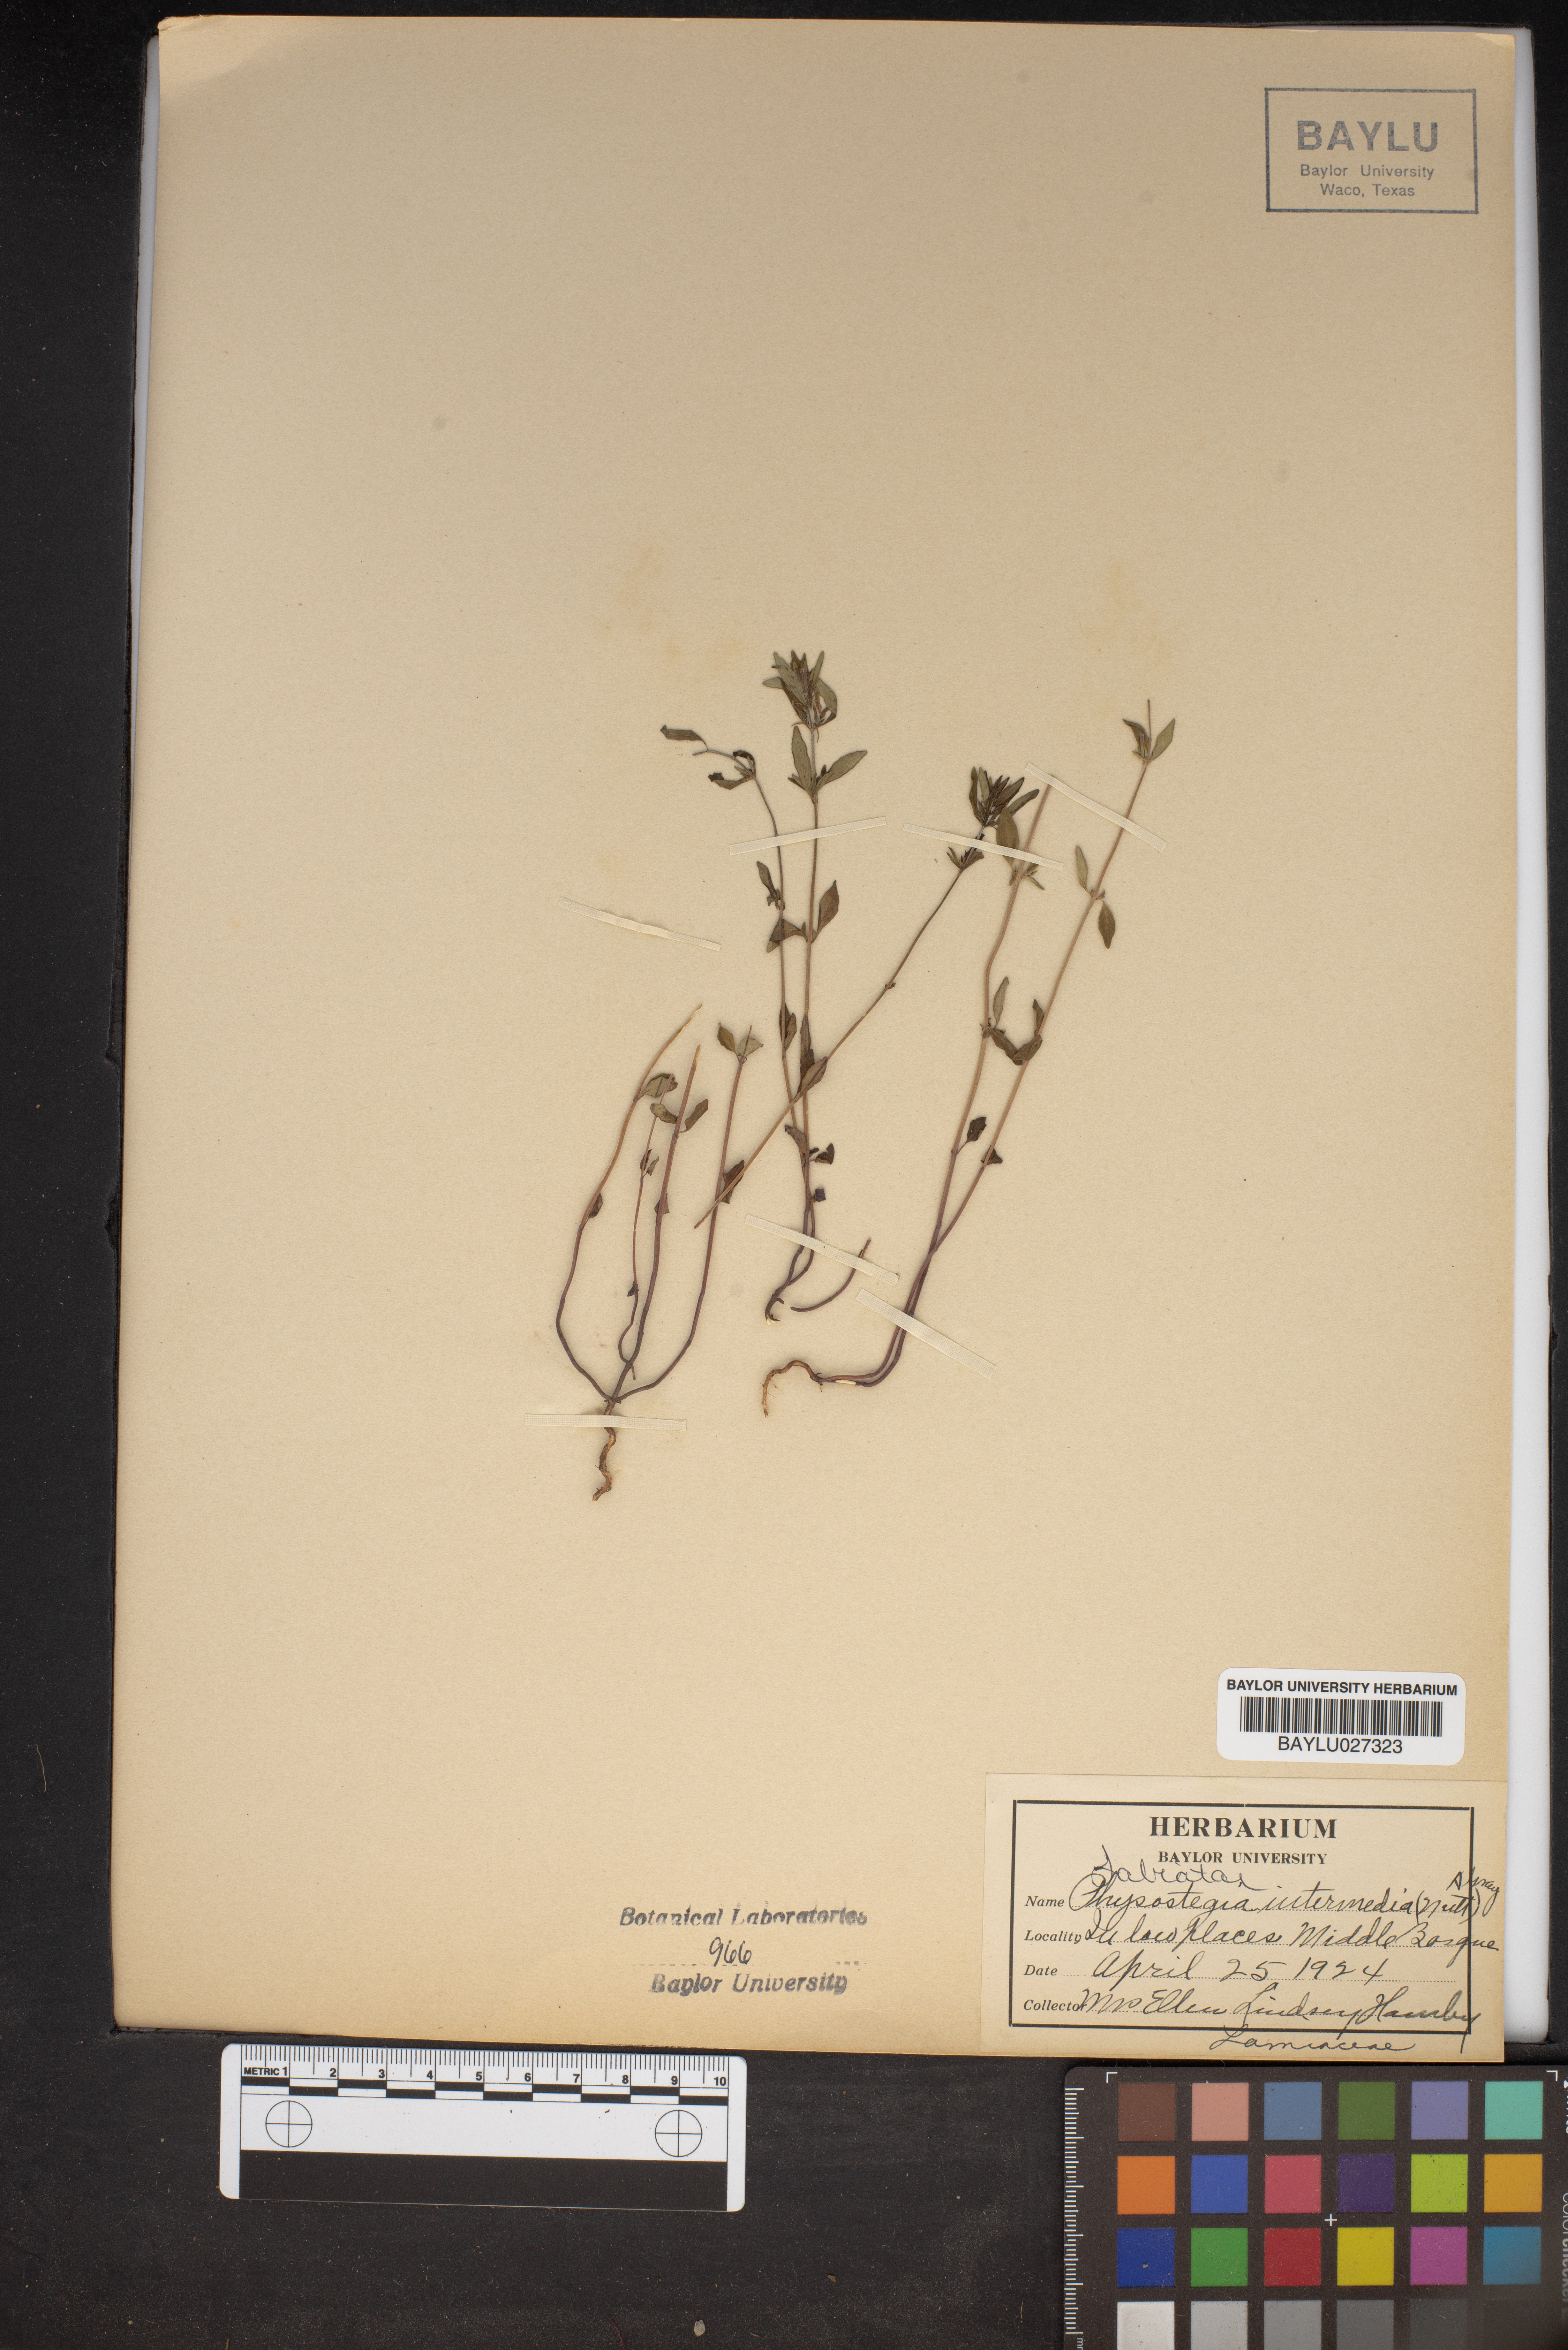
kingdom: Plantae
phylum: Tracheophyta
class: Magnoliopsida
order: Lamiales
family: Lamiaceae
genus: Physostegia
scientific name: Physostegia intermedia
